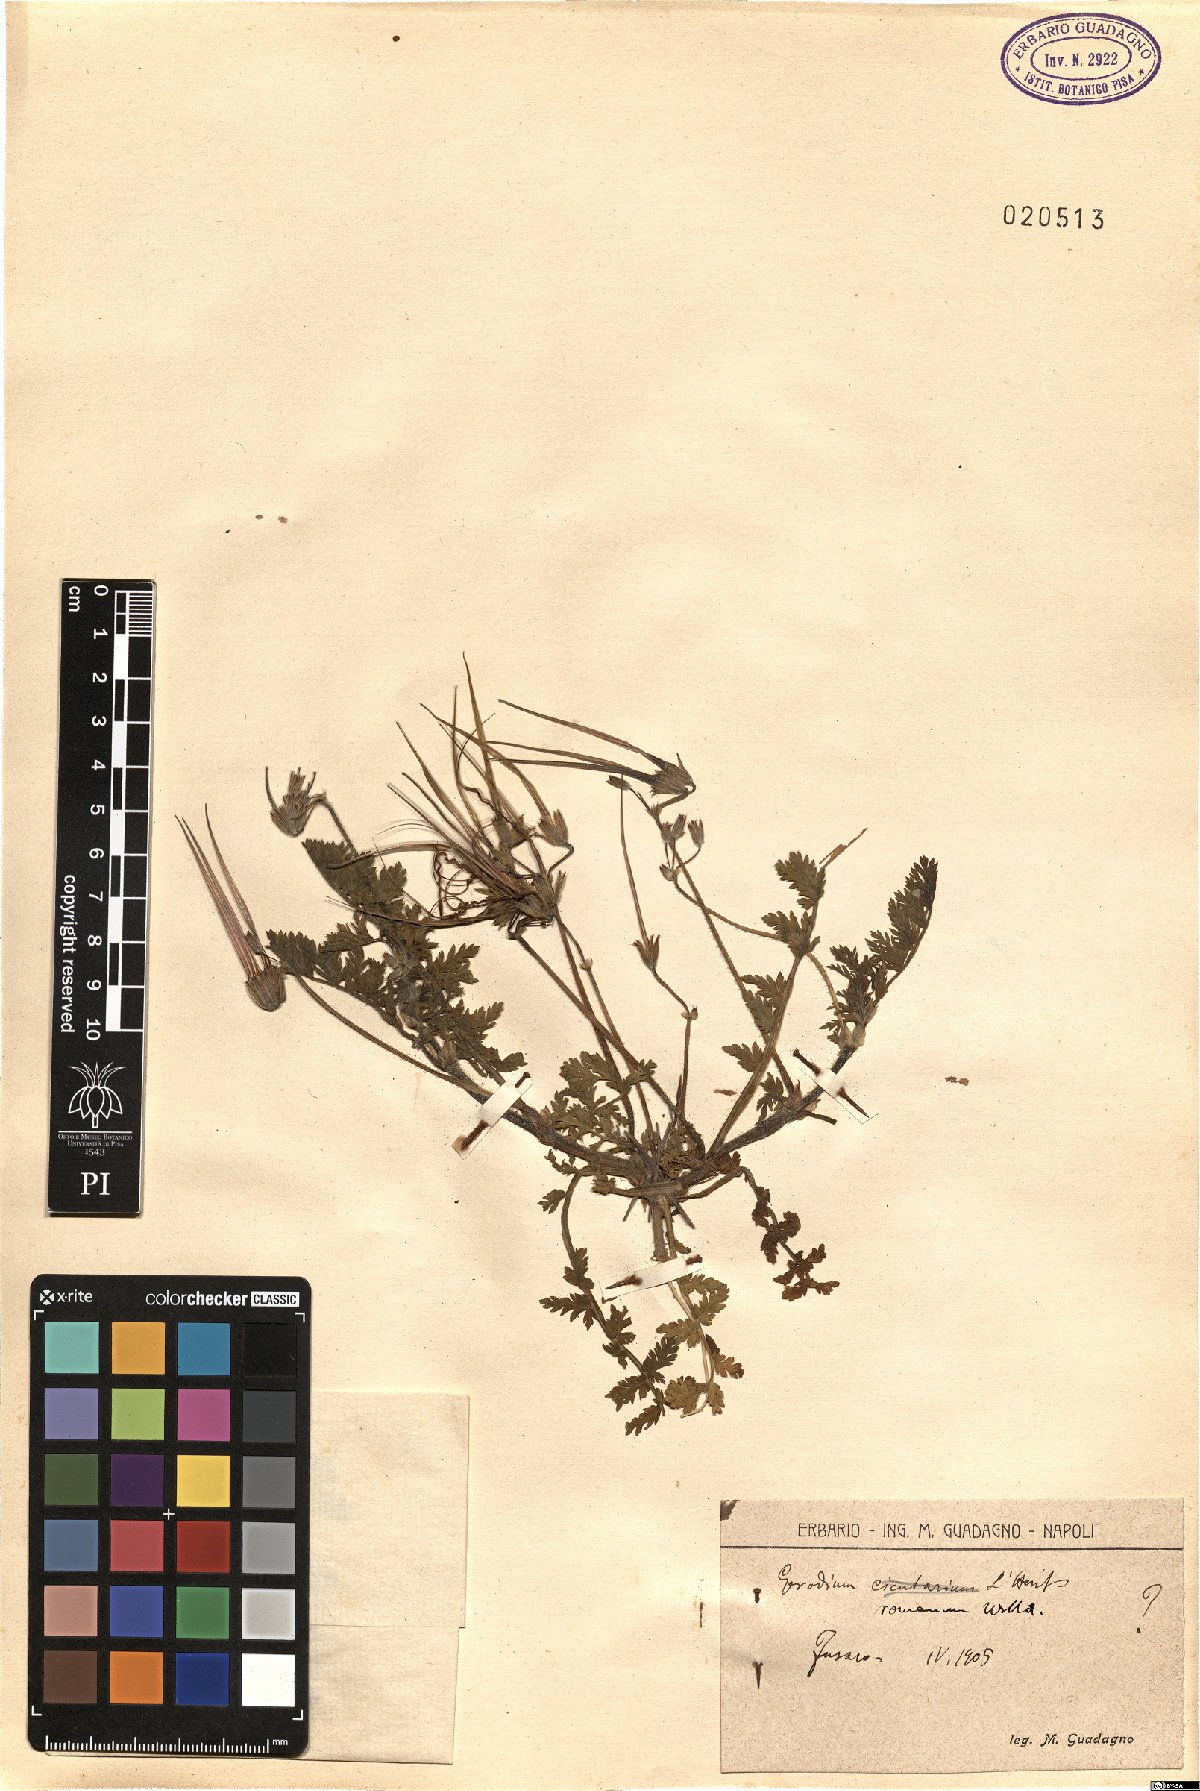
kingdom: Plantae
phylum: Tracheophyta
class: Magnoliopsida
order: Geraniales
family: Geraniaceae
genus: Erodium
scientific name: Erodium acaule
